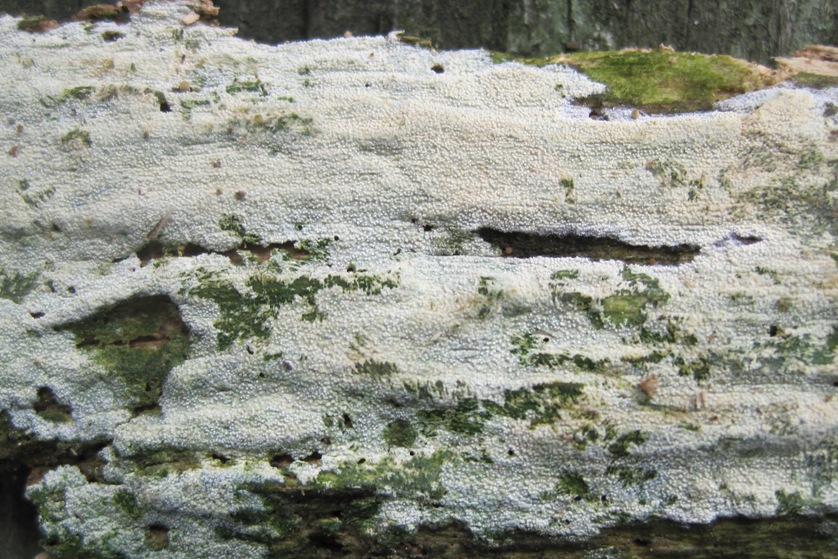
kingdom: Fungi
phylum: Basidiomycota
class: Agaricomycetes
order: Hymenochaetales
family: Schizoporaceae
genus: Xylodon
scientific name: Xylodon asper
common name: fjern tandsvamp
